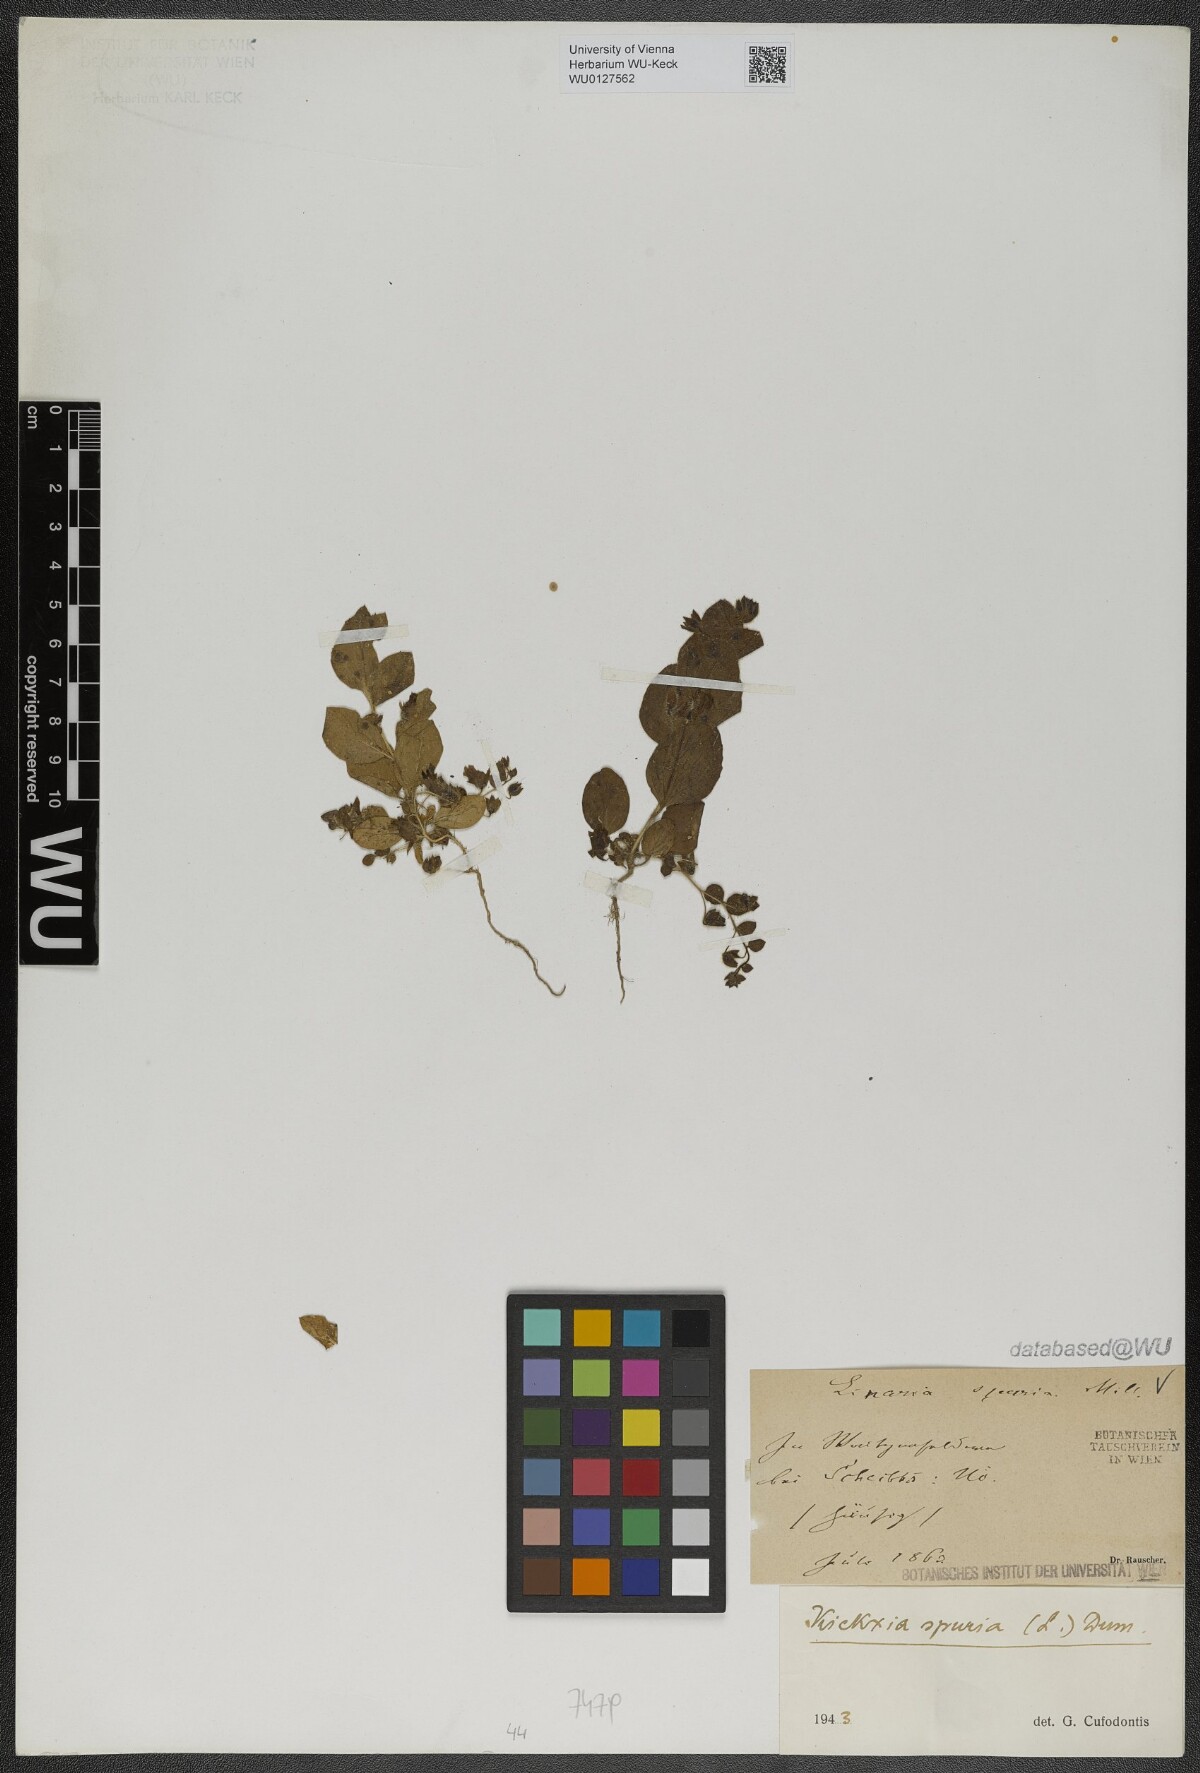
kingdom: Plantae
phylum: Tracheophyta
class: Magnoliopsida
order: Lamiales
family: Plantaginaceae
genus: Kickxia
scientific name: Kickxia spuria
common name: Round-leaved fluellen
